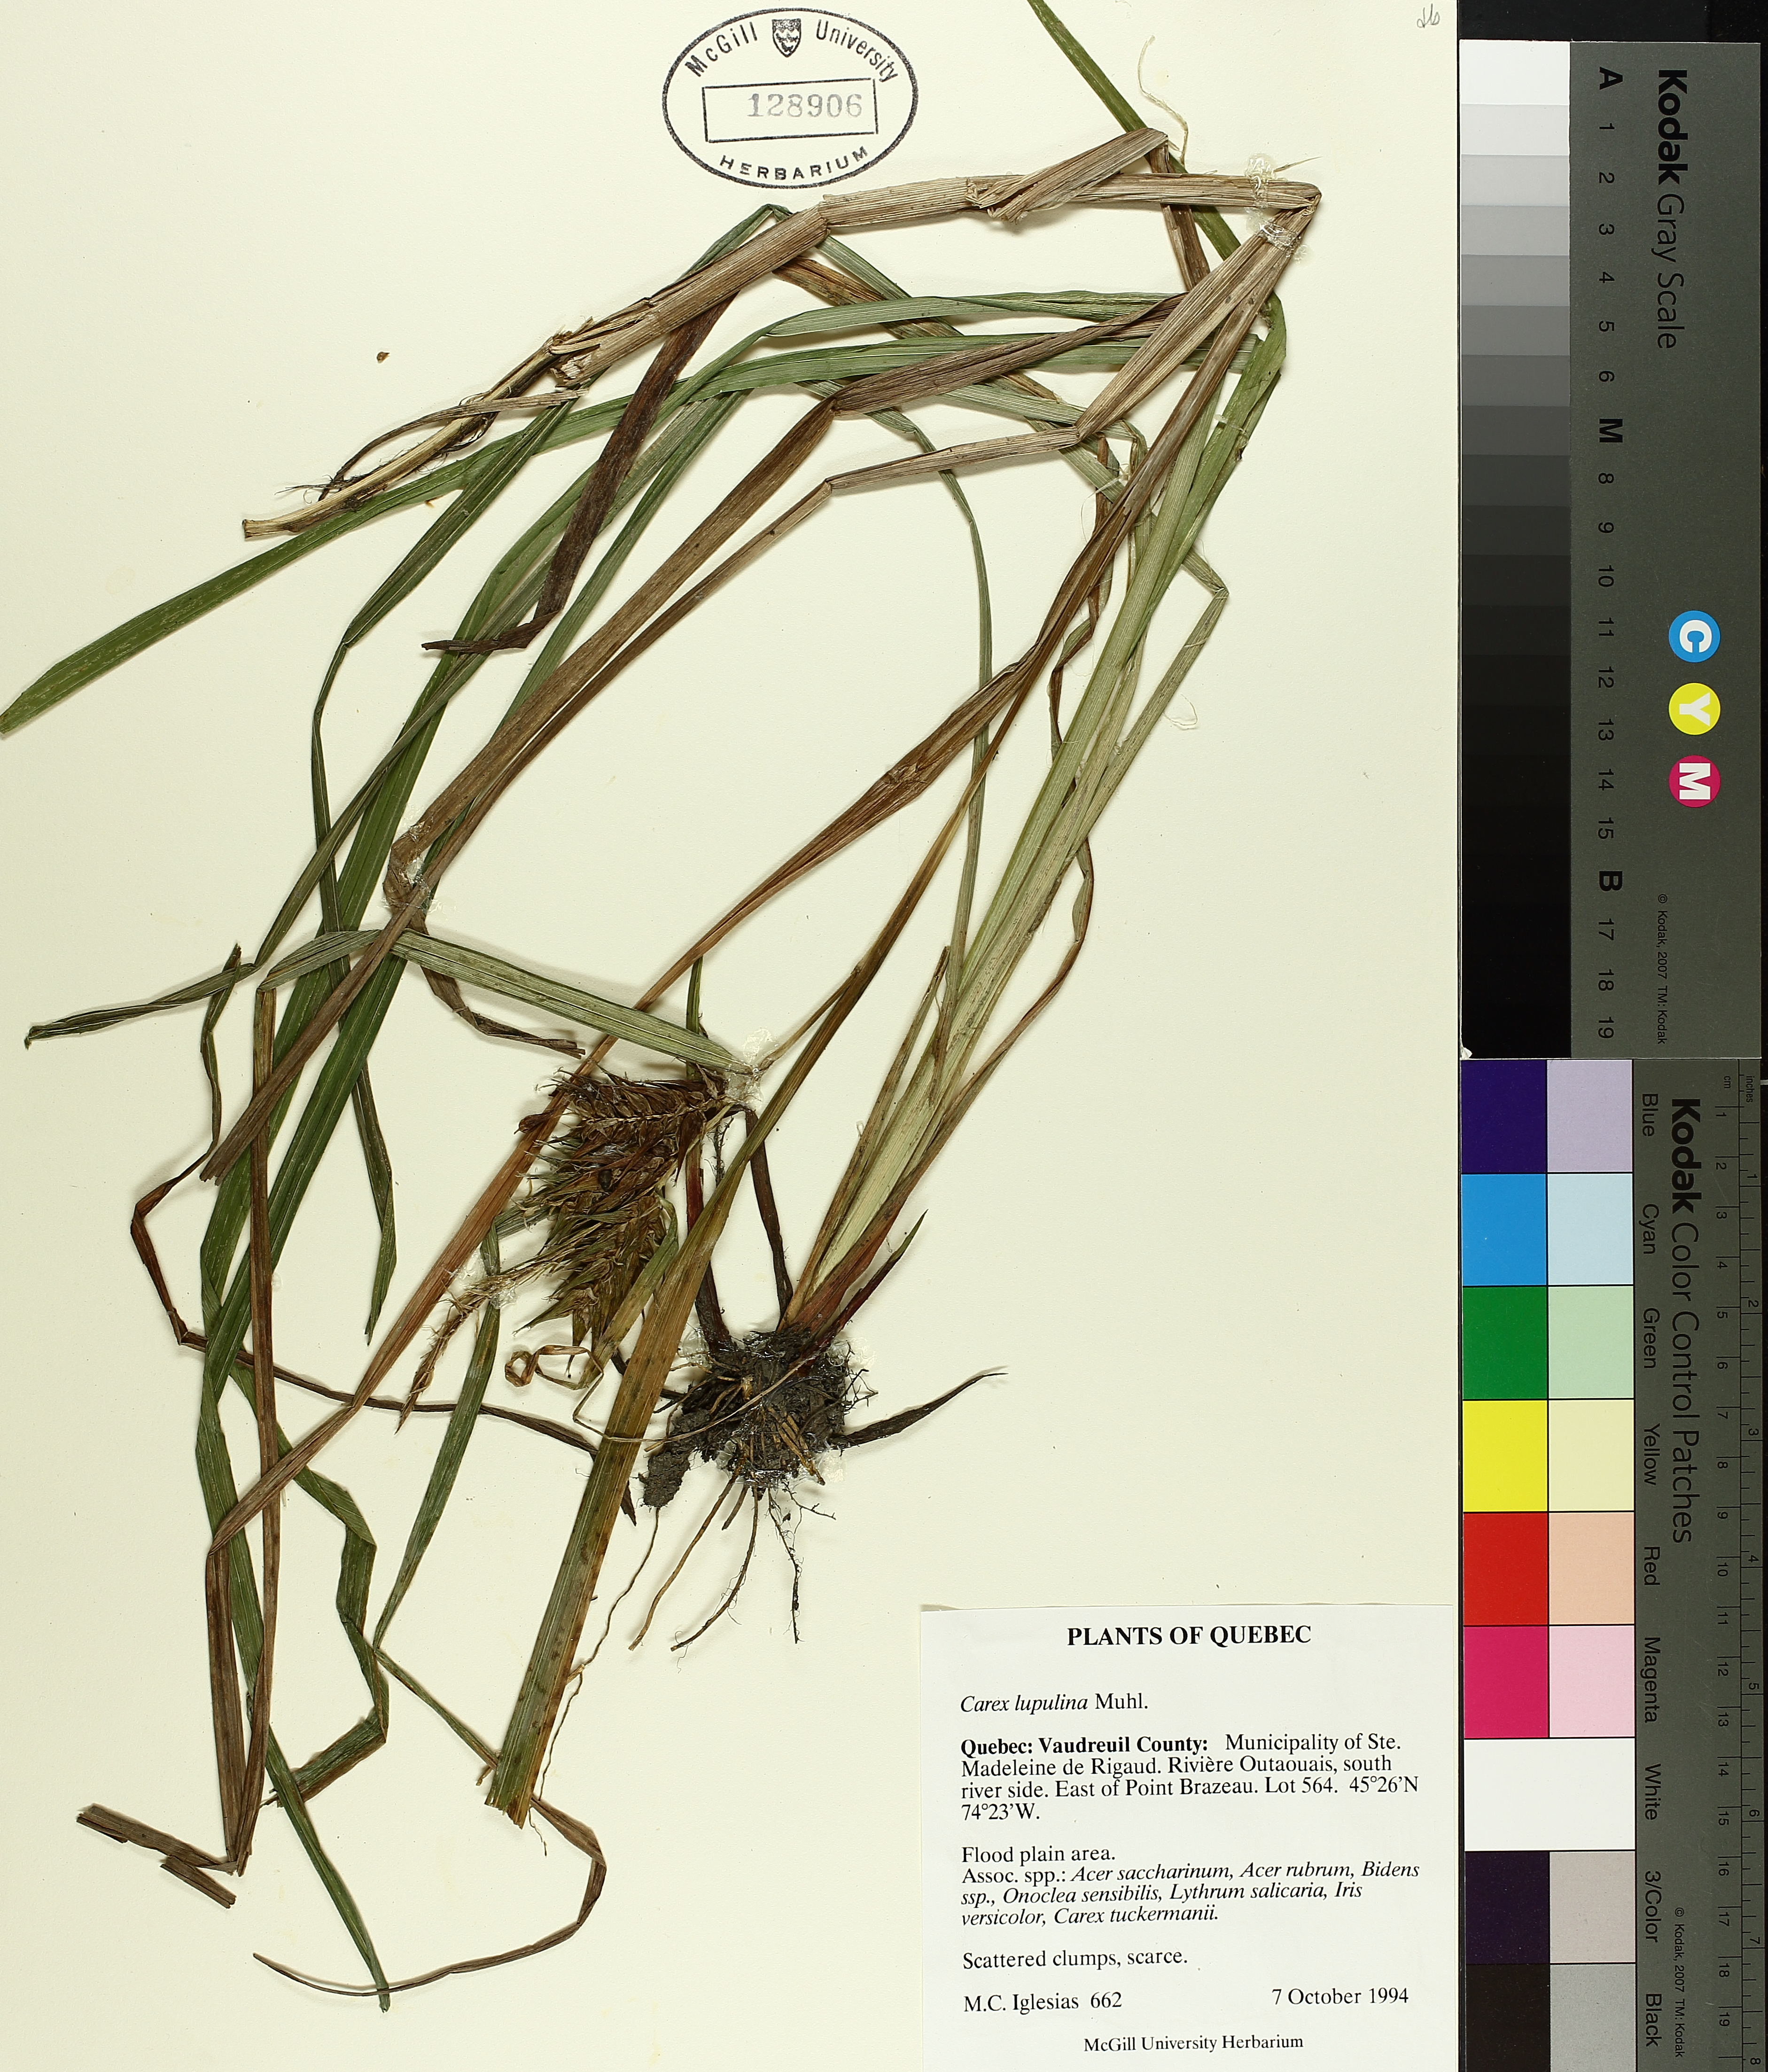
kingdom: Plantae
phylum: Tracheophyta
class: Liliopsida
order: Poales
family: Cyperaceae
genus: Carex
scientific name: Carex lupulina
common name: Hop sedge
